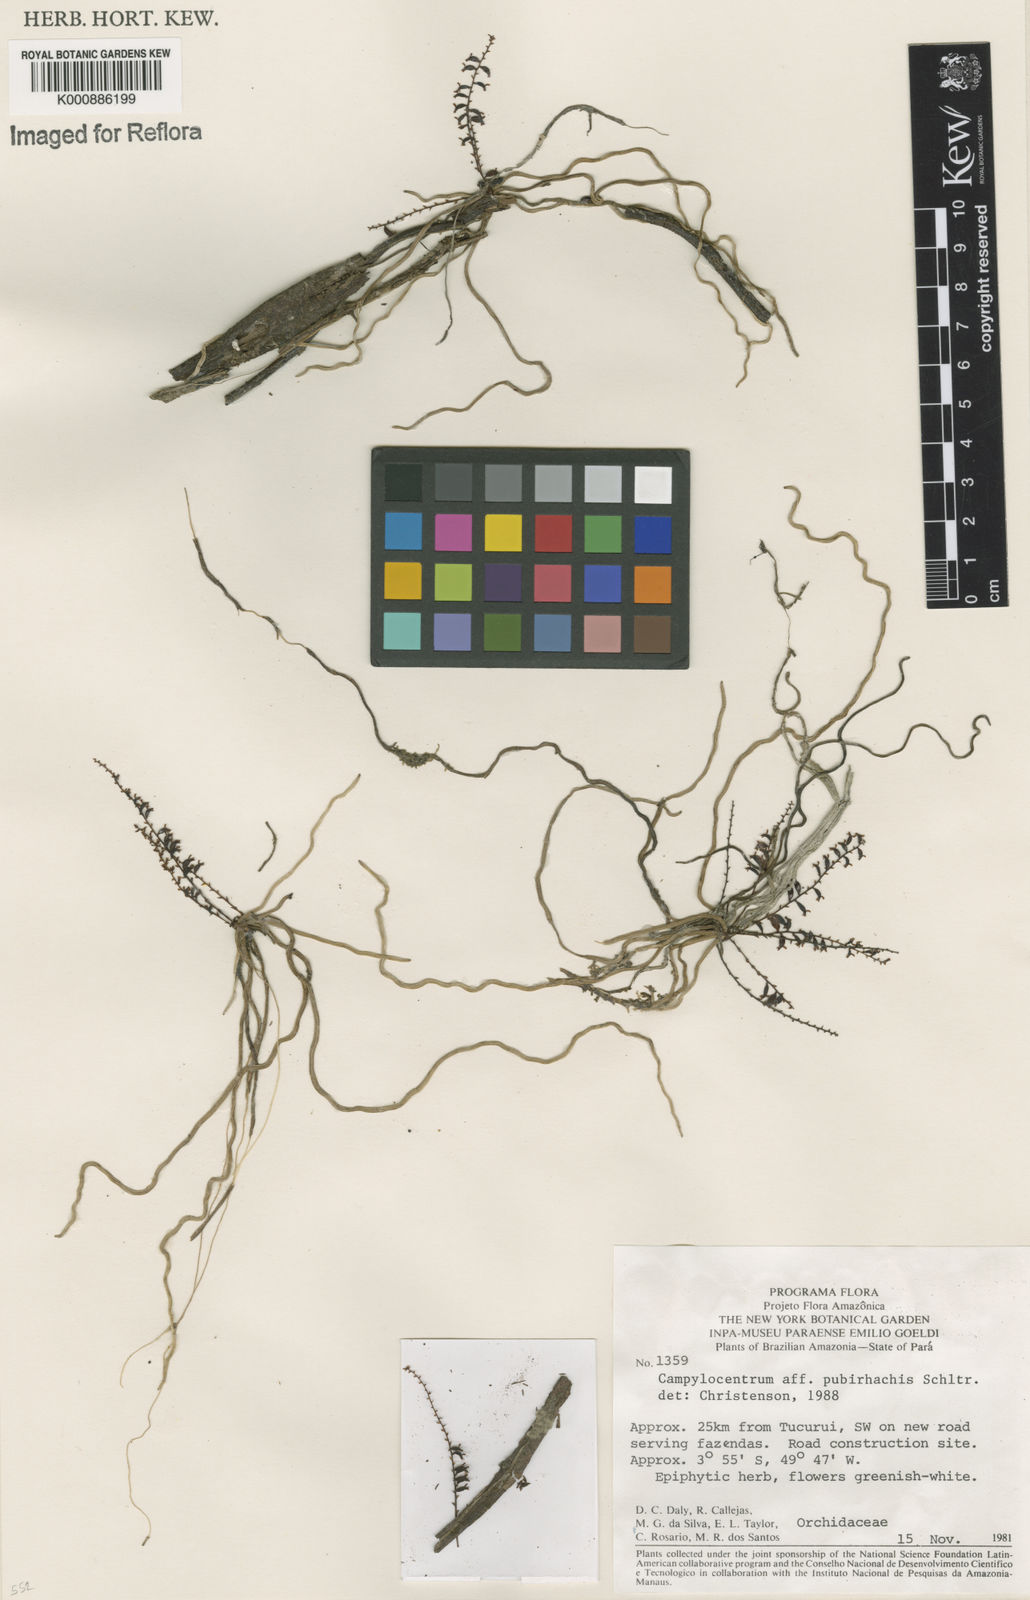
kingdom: Plantae
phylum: Tracheophyta
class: Liliopsida
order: Asparagales
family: Orchidaceae
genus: Campylocentrum
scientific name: Campylocentrum pubirhachis
